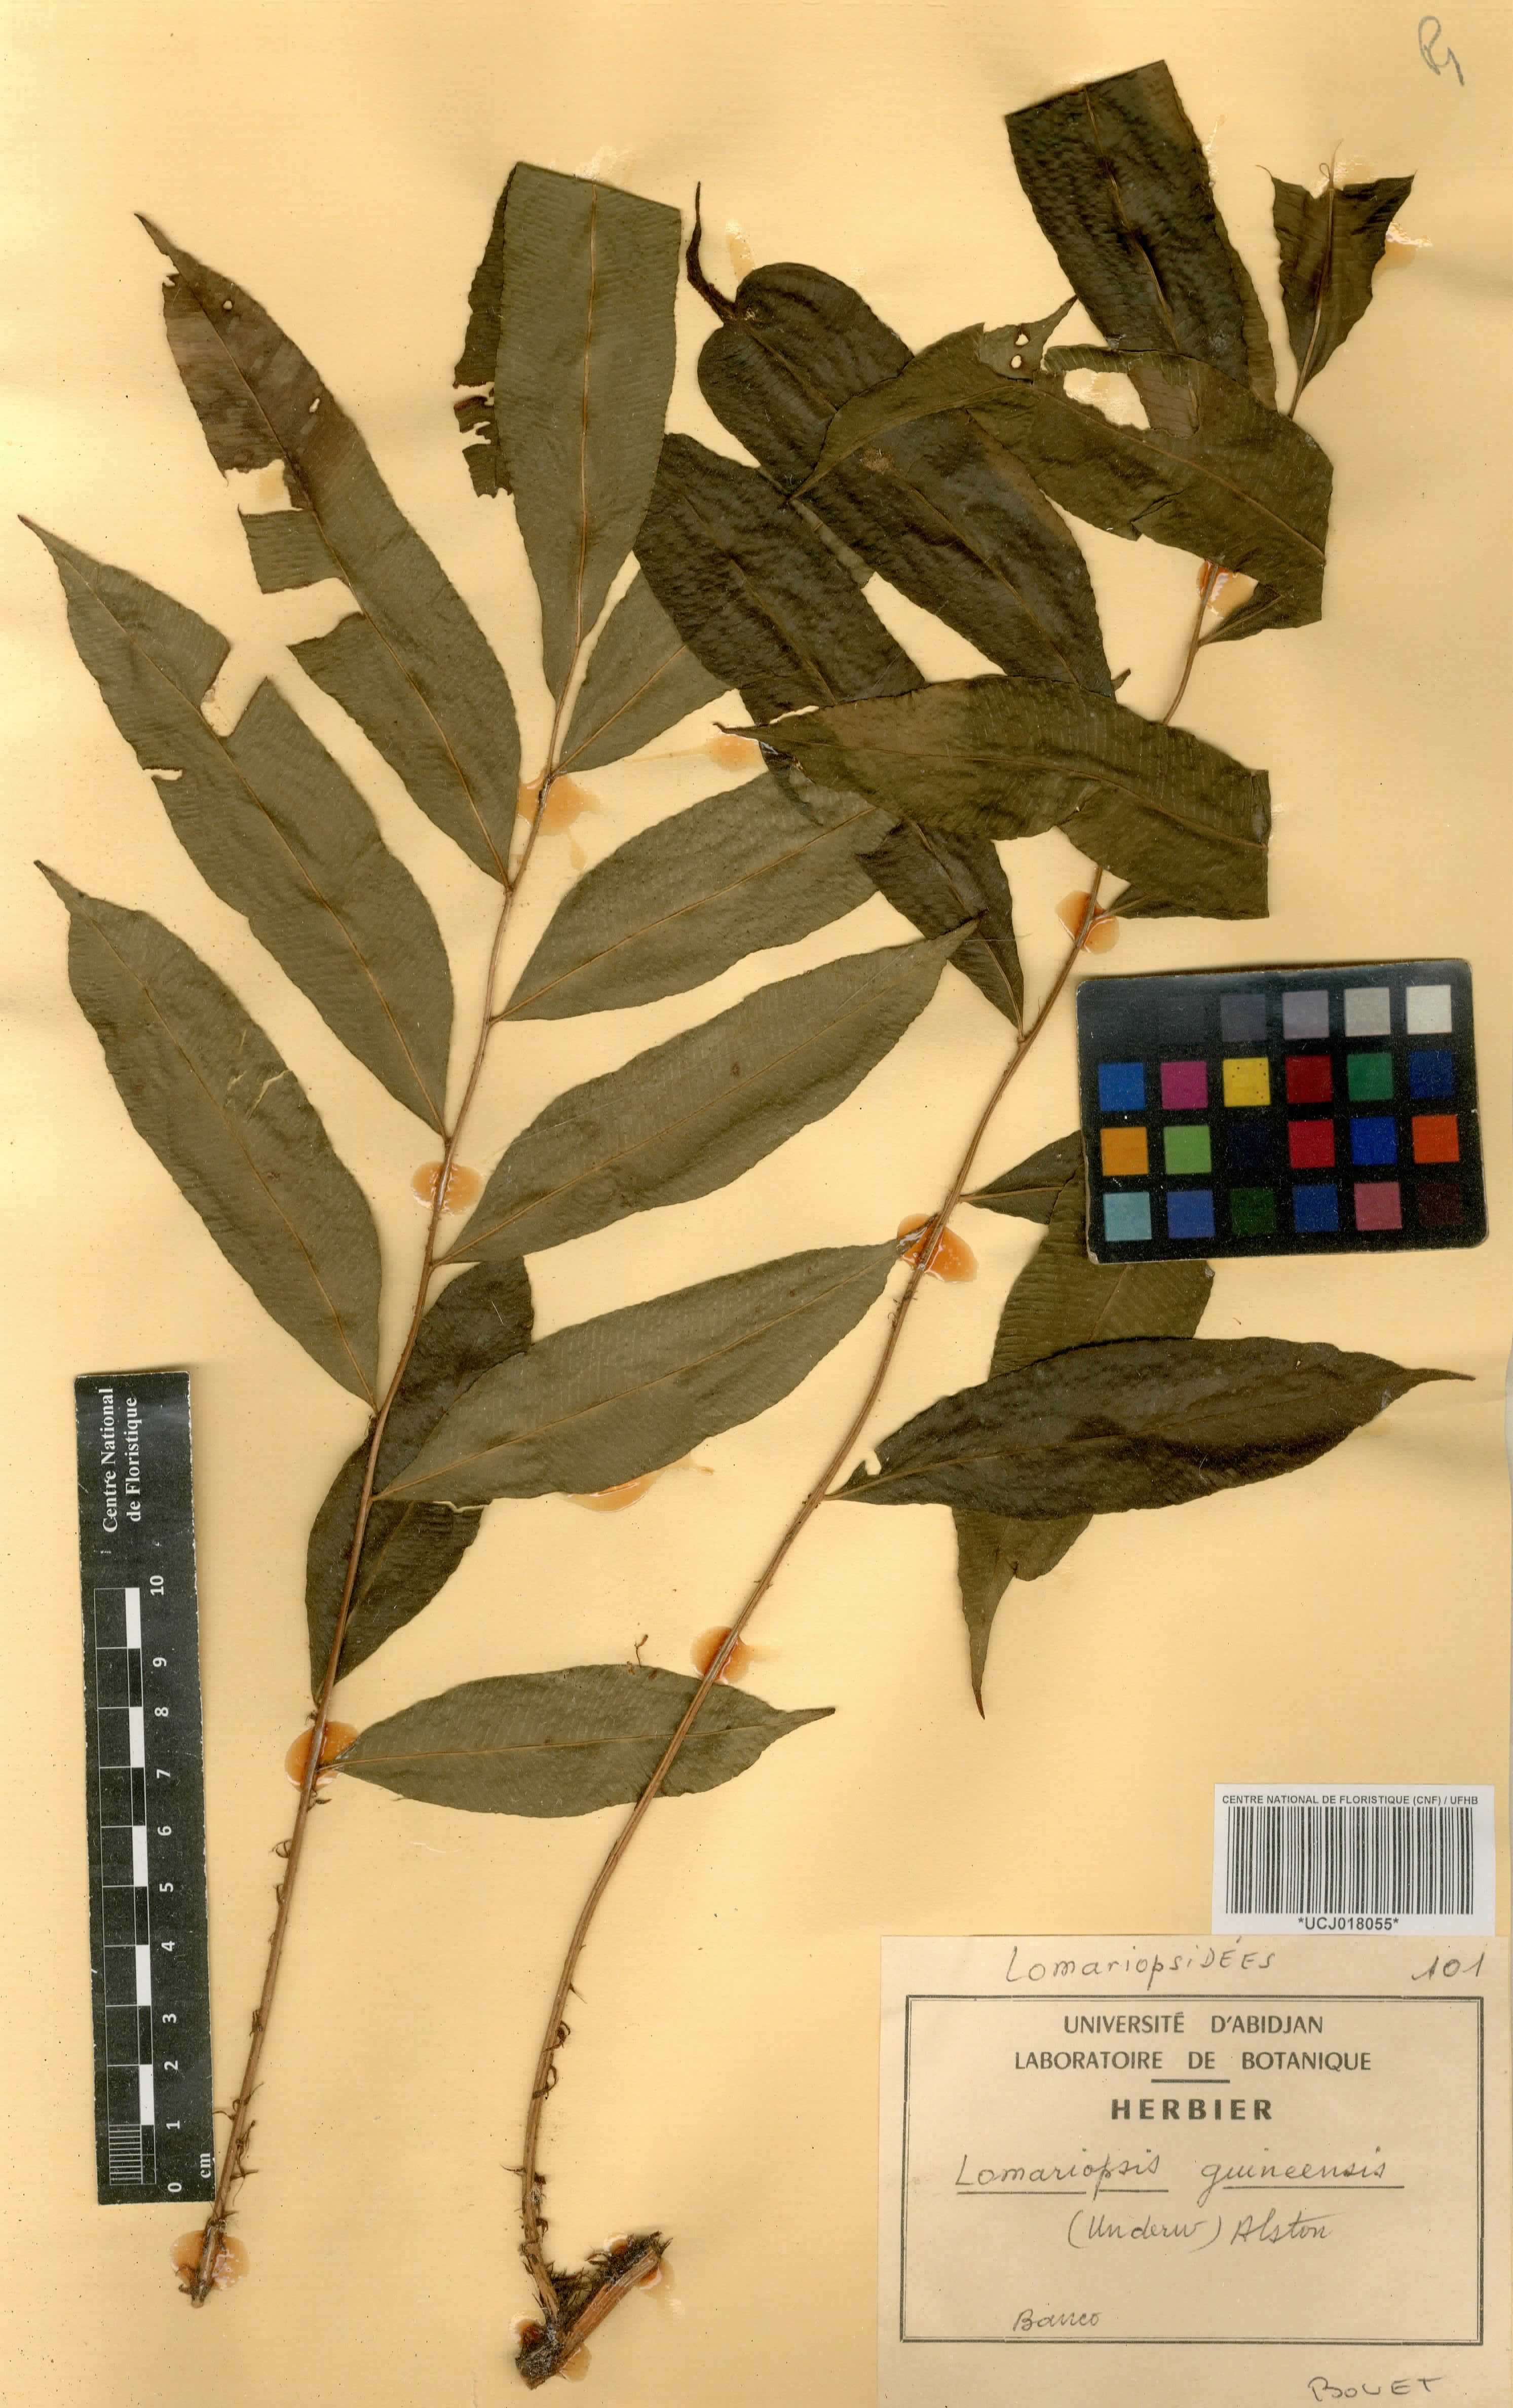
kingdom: Plantae
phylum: Tracheophyta
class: Polypodiopsida
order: Polypodiales
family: Lomariopsidaceae
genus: Lomariopsis
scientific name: Lomariopsis guineensis
